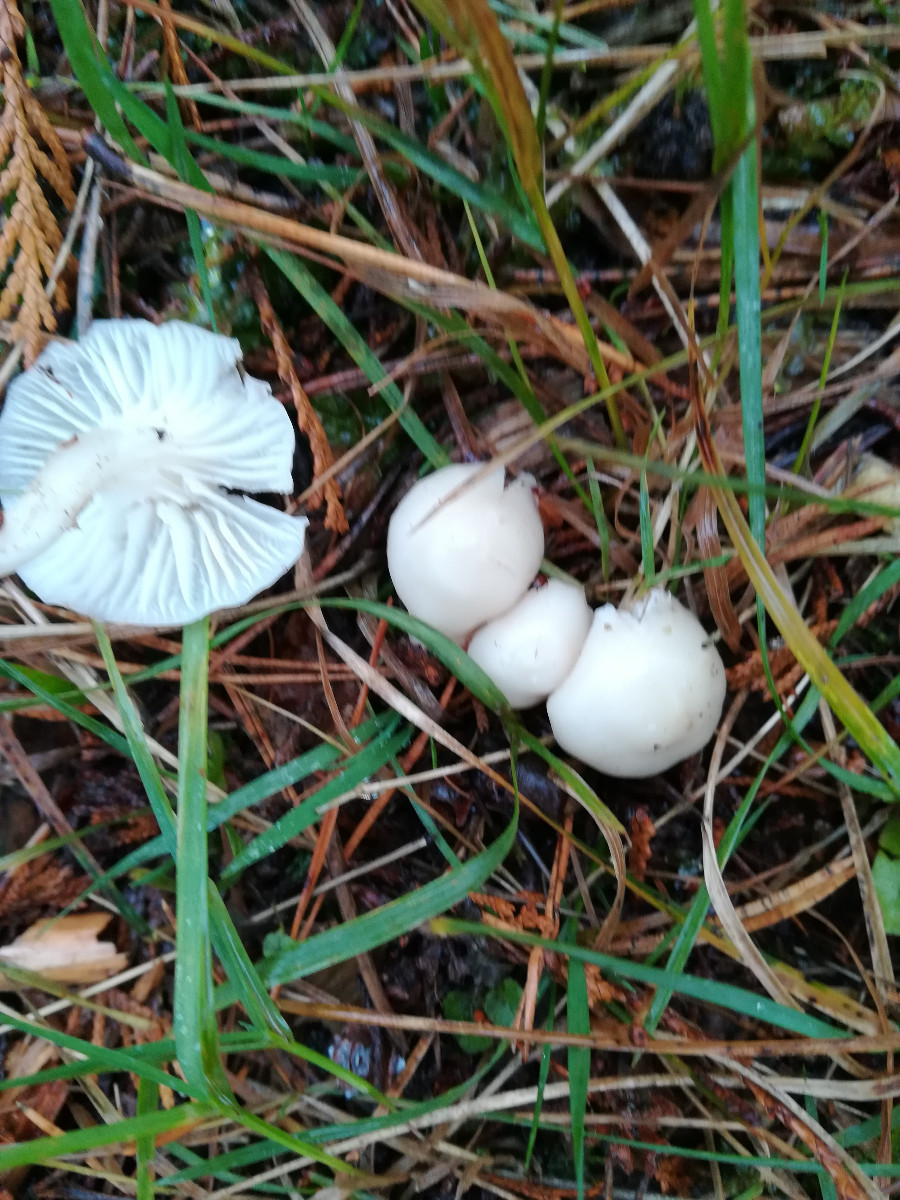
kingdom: Fungi
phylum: Basidiomycota
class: Agaricomycetes
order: Agaricales
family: Hygrophoraceae
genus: Cuphophyllus
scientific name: Cuphophyllus virgineus
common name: snehvid vokshat
